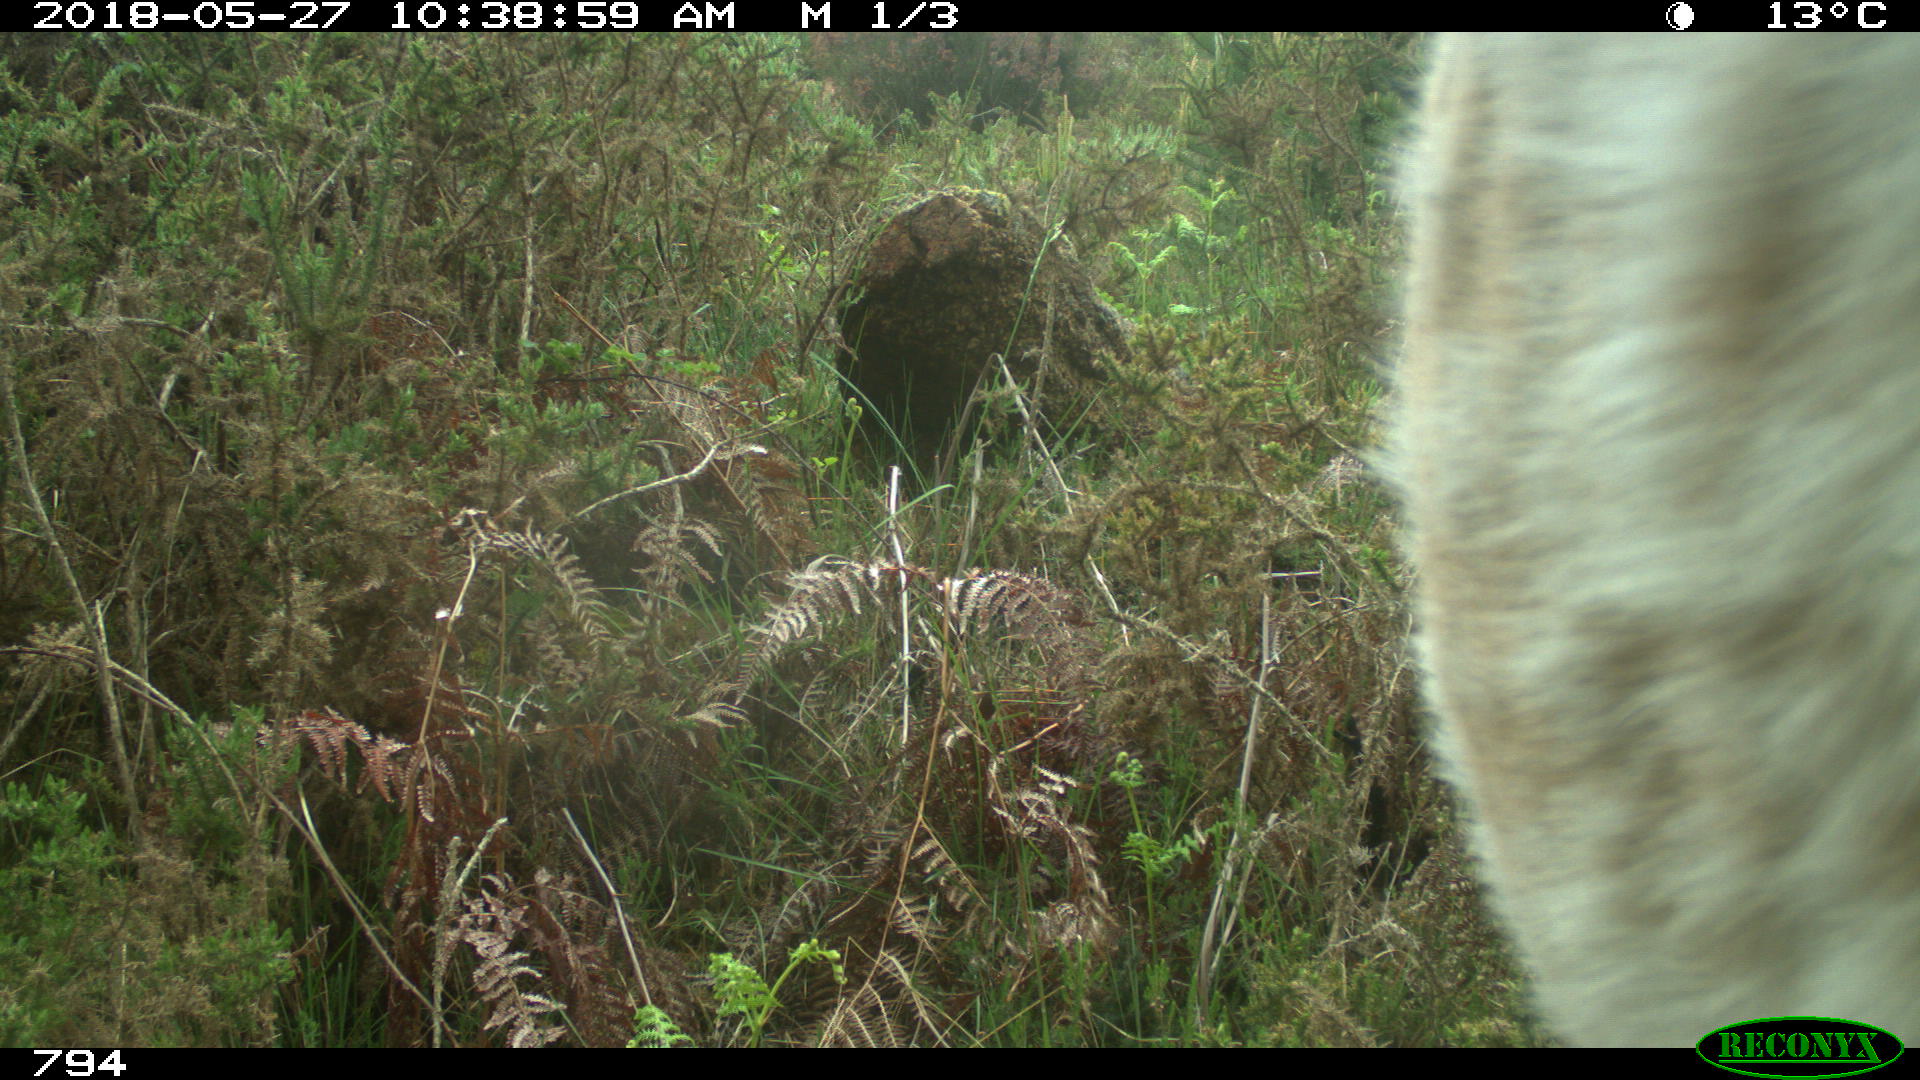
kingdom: Animalia
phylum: Chordata
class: Mammalia
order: Artiodactyla
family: Bovidae
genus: Bos
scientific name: Bos taurus
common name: Domesticated cattle
